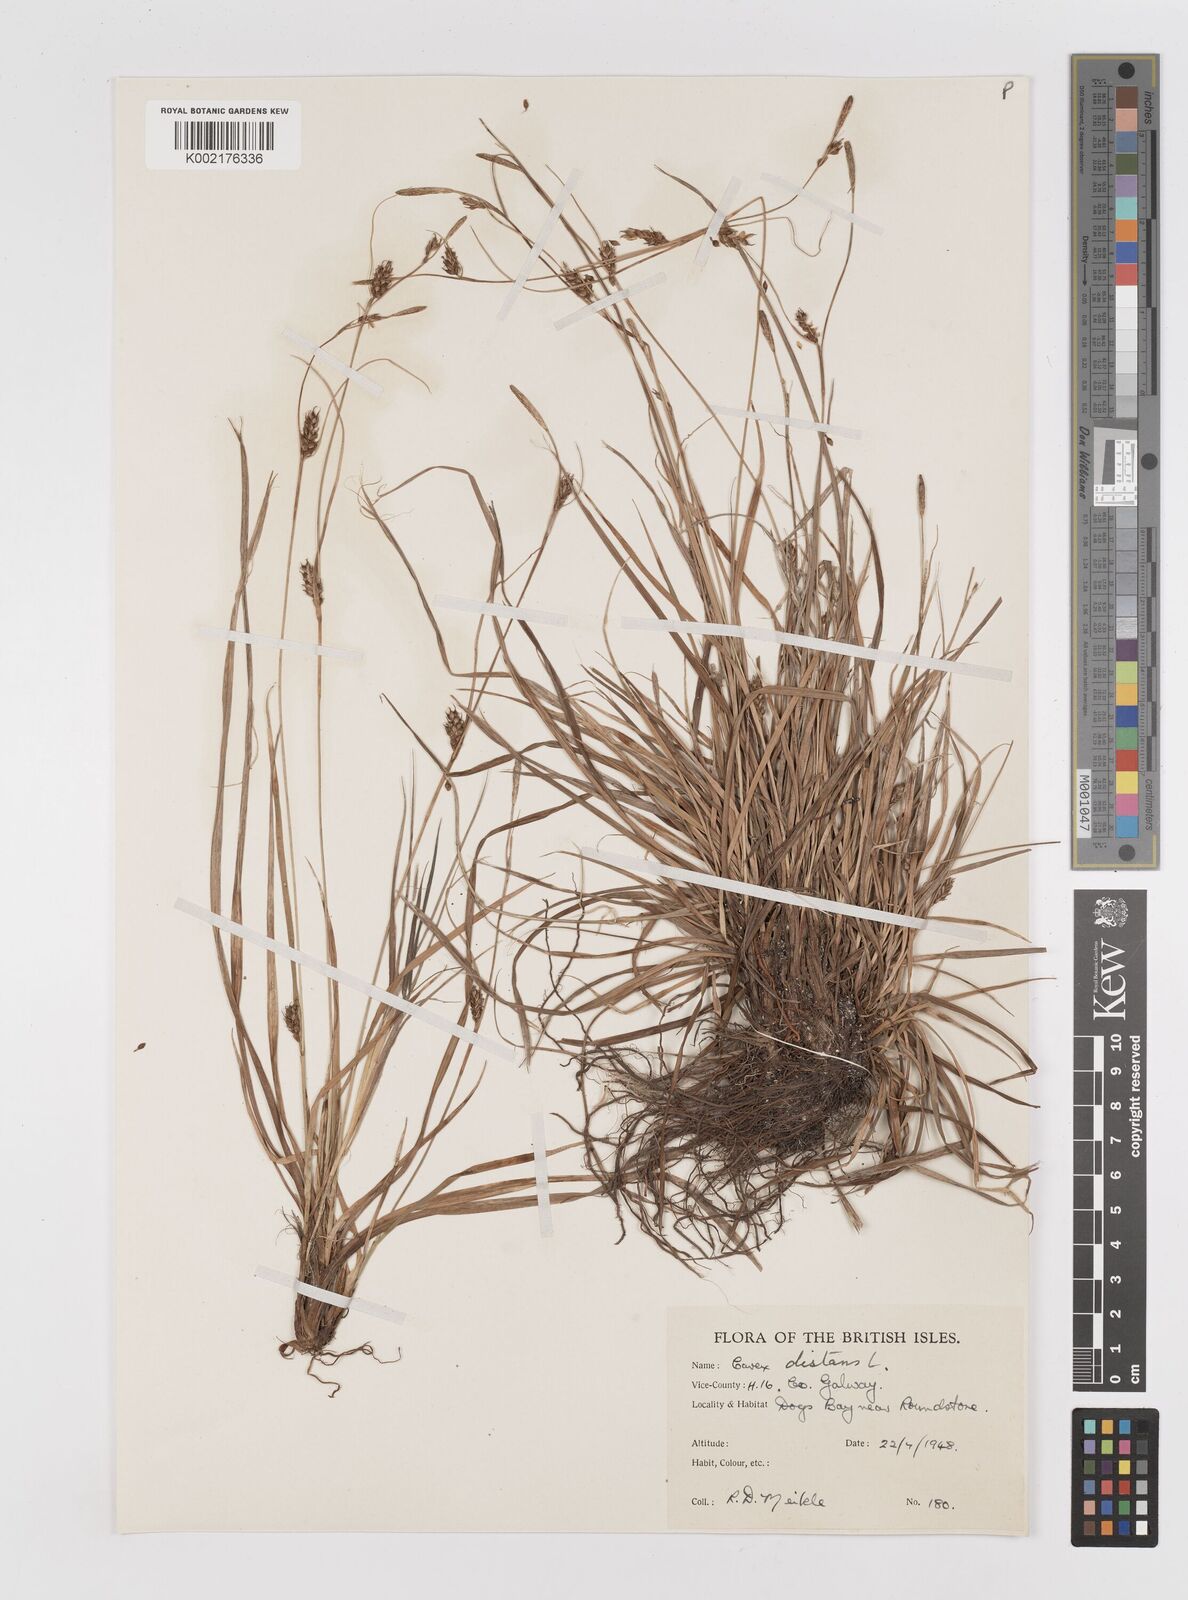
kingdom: Plantae
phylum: Tracheophyta
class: Liliopsida
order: Poales
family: Cyperaceae
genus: Carex
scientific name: Carex distans
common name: Distant sedge
